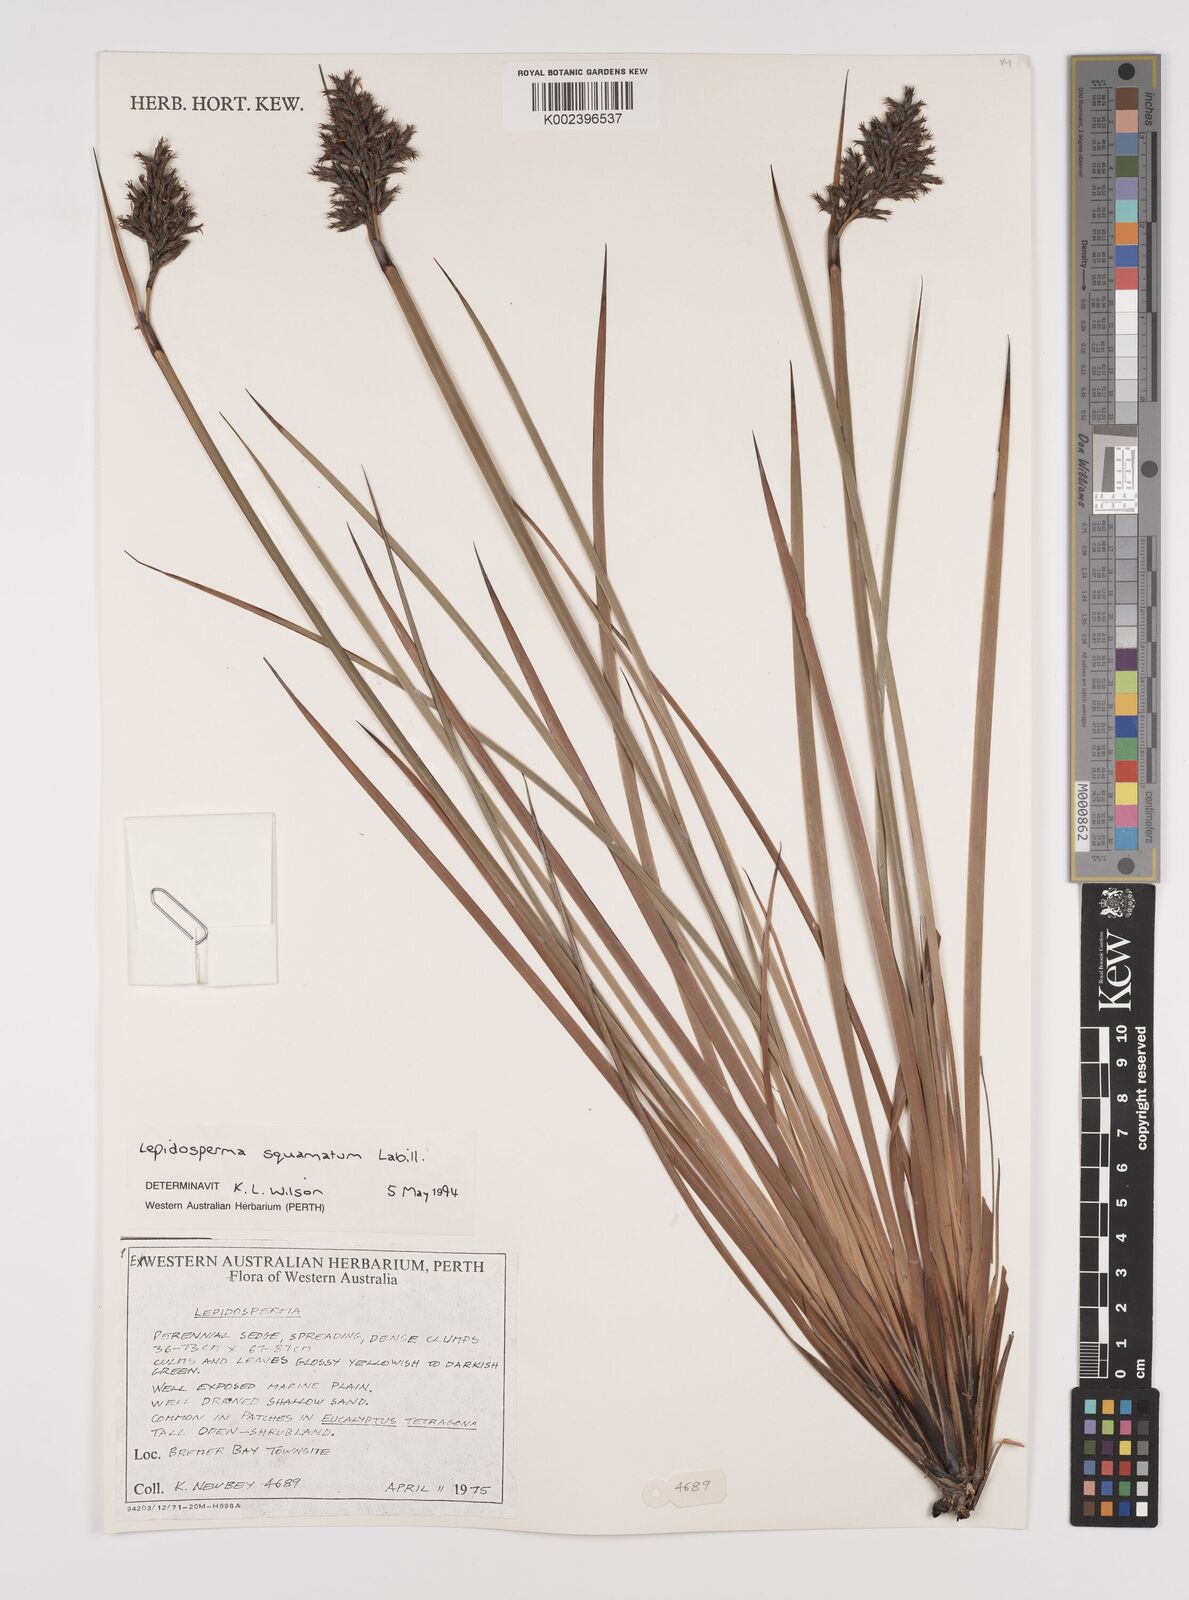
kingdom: Plantae
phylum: Tracheophyta
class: Liliopsida
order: Poales
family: Cyperaceae
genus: Lepidosperma
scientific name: Lepidosperma squamatum
